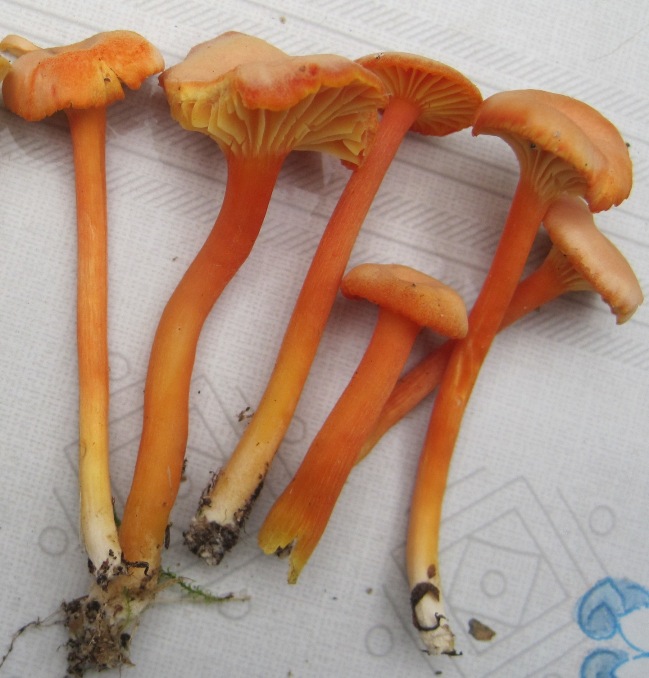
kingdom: Fungi
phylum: Basidiomycota
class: Agaricomycetes
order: Agaricales
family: Hygrophoraceae
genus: Hygrocybe
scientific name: Hygrocybe cantharellus
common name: kantarel-vokshat
